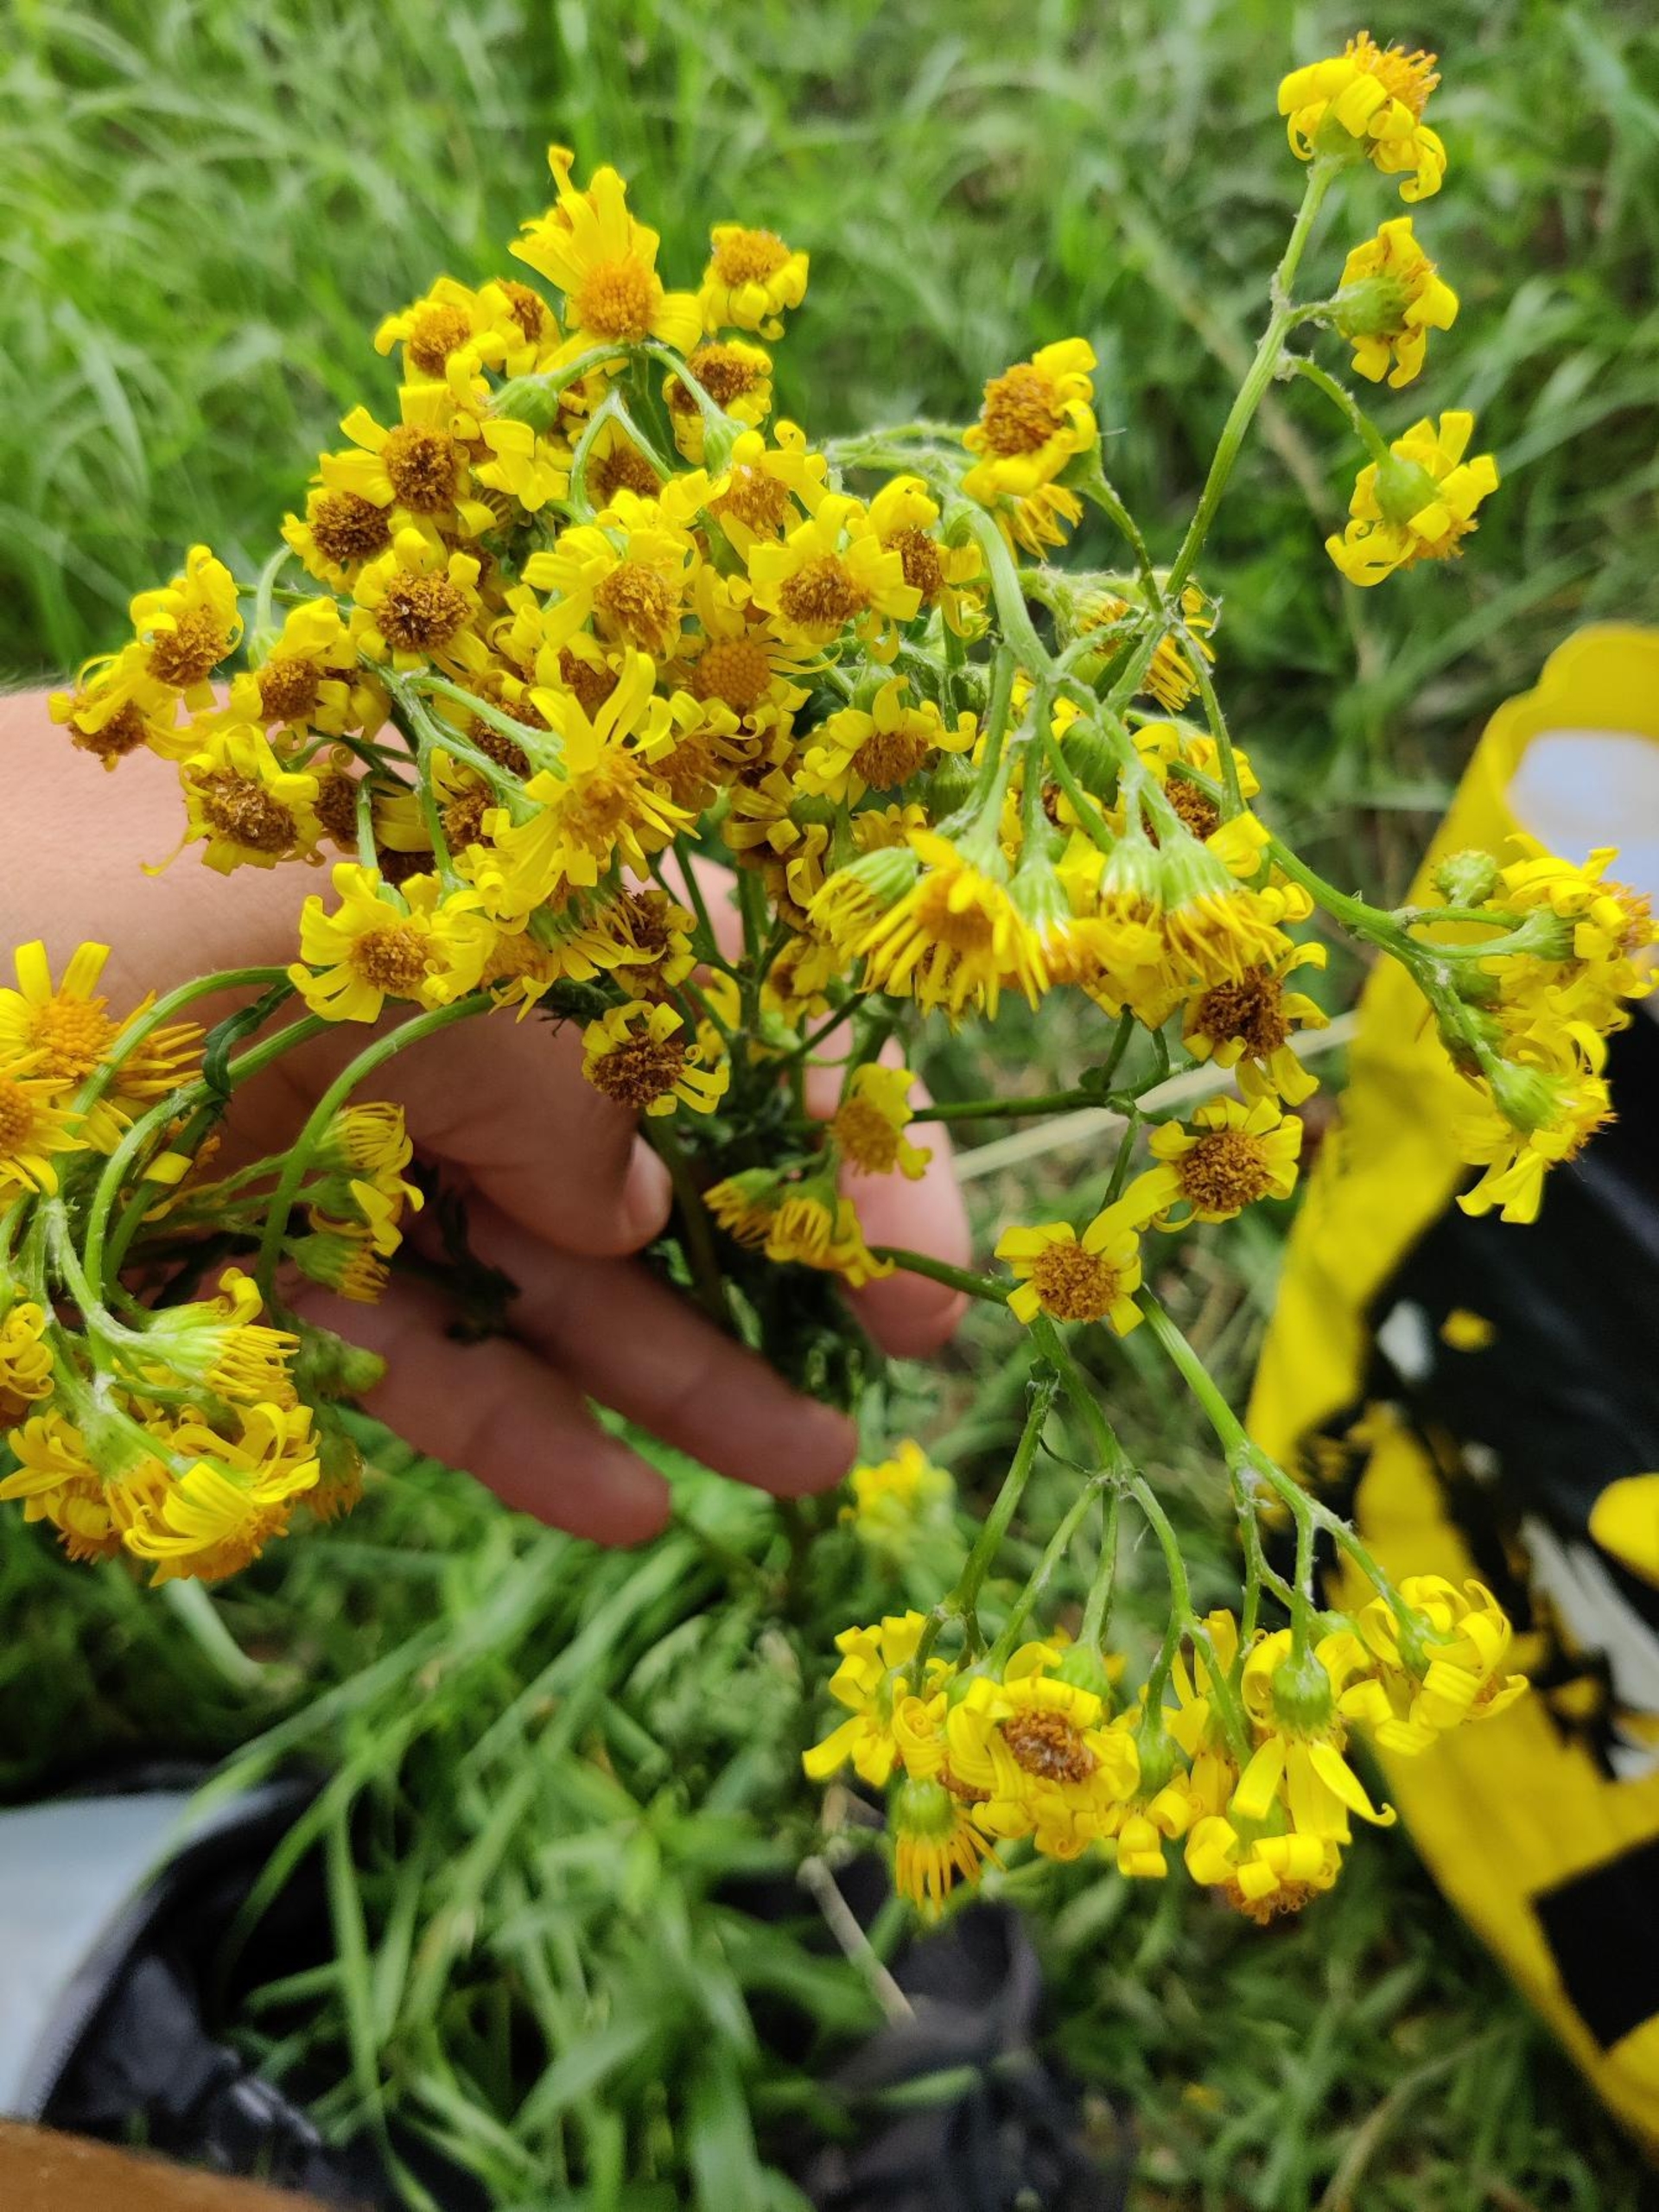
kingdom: Plantae
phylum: Tracheophyta
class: Magnoliopsida
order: Asterales
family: Asteraceae
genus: Jacobaea
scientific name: Jacobaea vulgaris
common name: Eng-brandbæger
